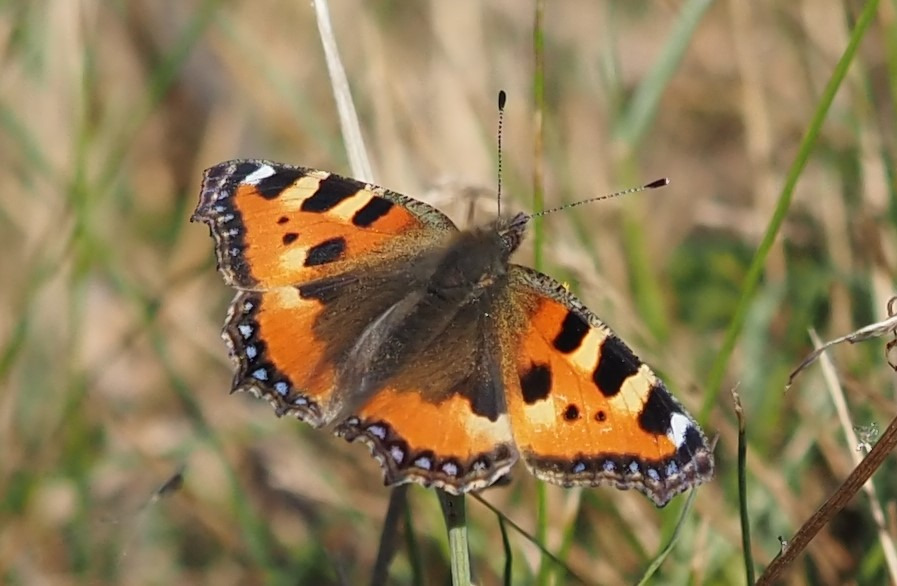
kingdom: Animalia
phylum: Arthropoda
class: Insecta
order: Lepidoptera
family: Nymphalidae
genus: Aglais
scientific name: Aglais urticae
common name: Nældens takvinge
